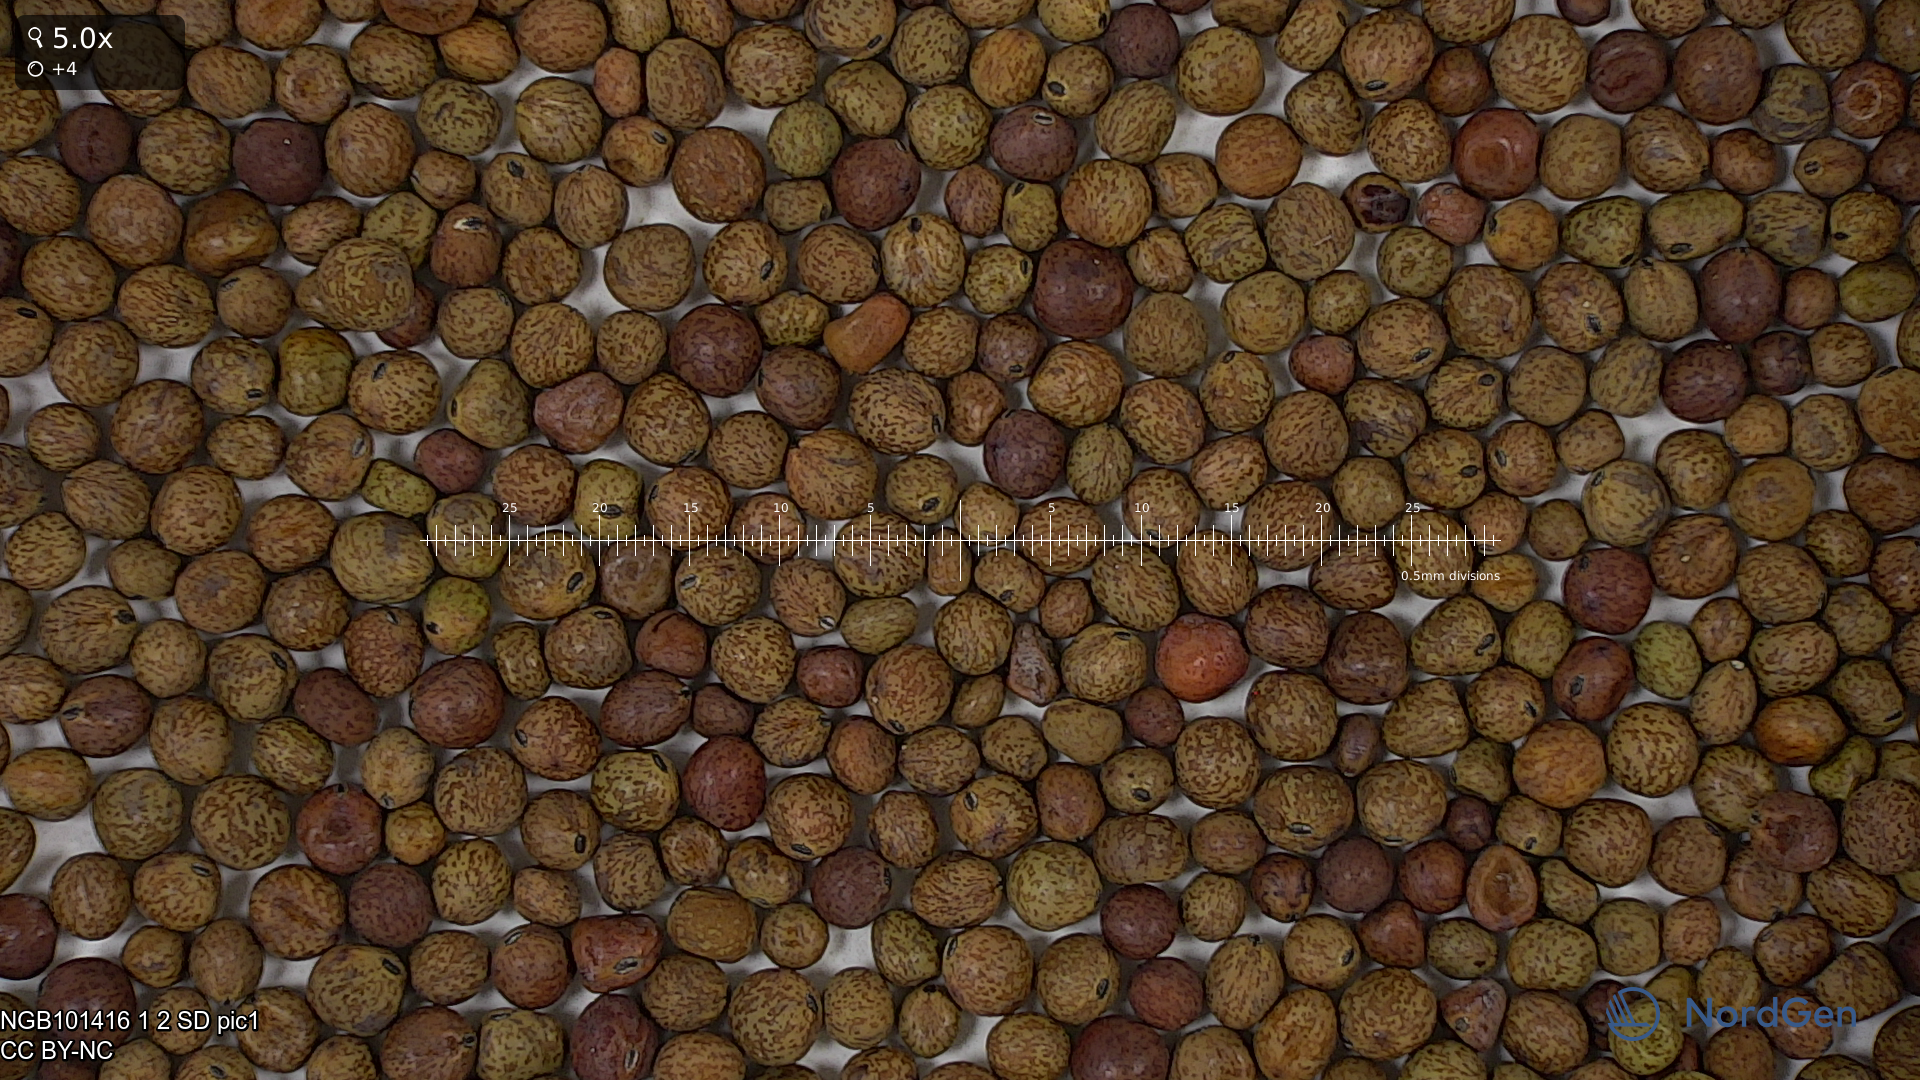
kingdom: Plantae
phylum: Tracheophyta
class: Magnoliopsida
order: Fabales
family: Fabaceae
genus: Lathyrus
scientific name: Lathyrus oleraceus
